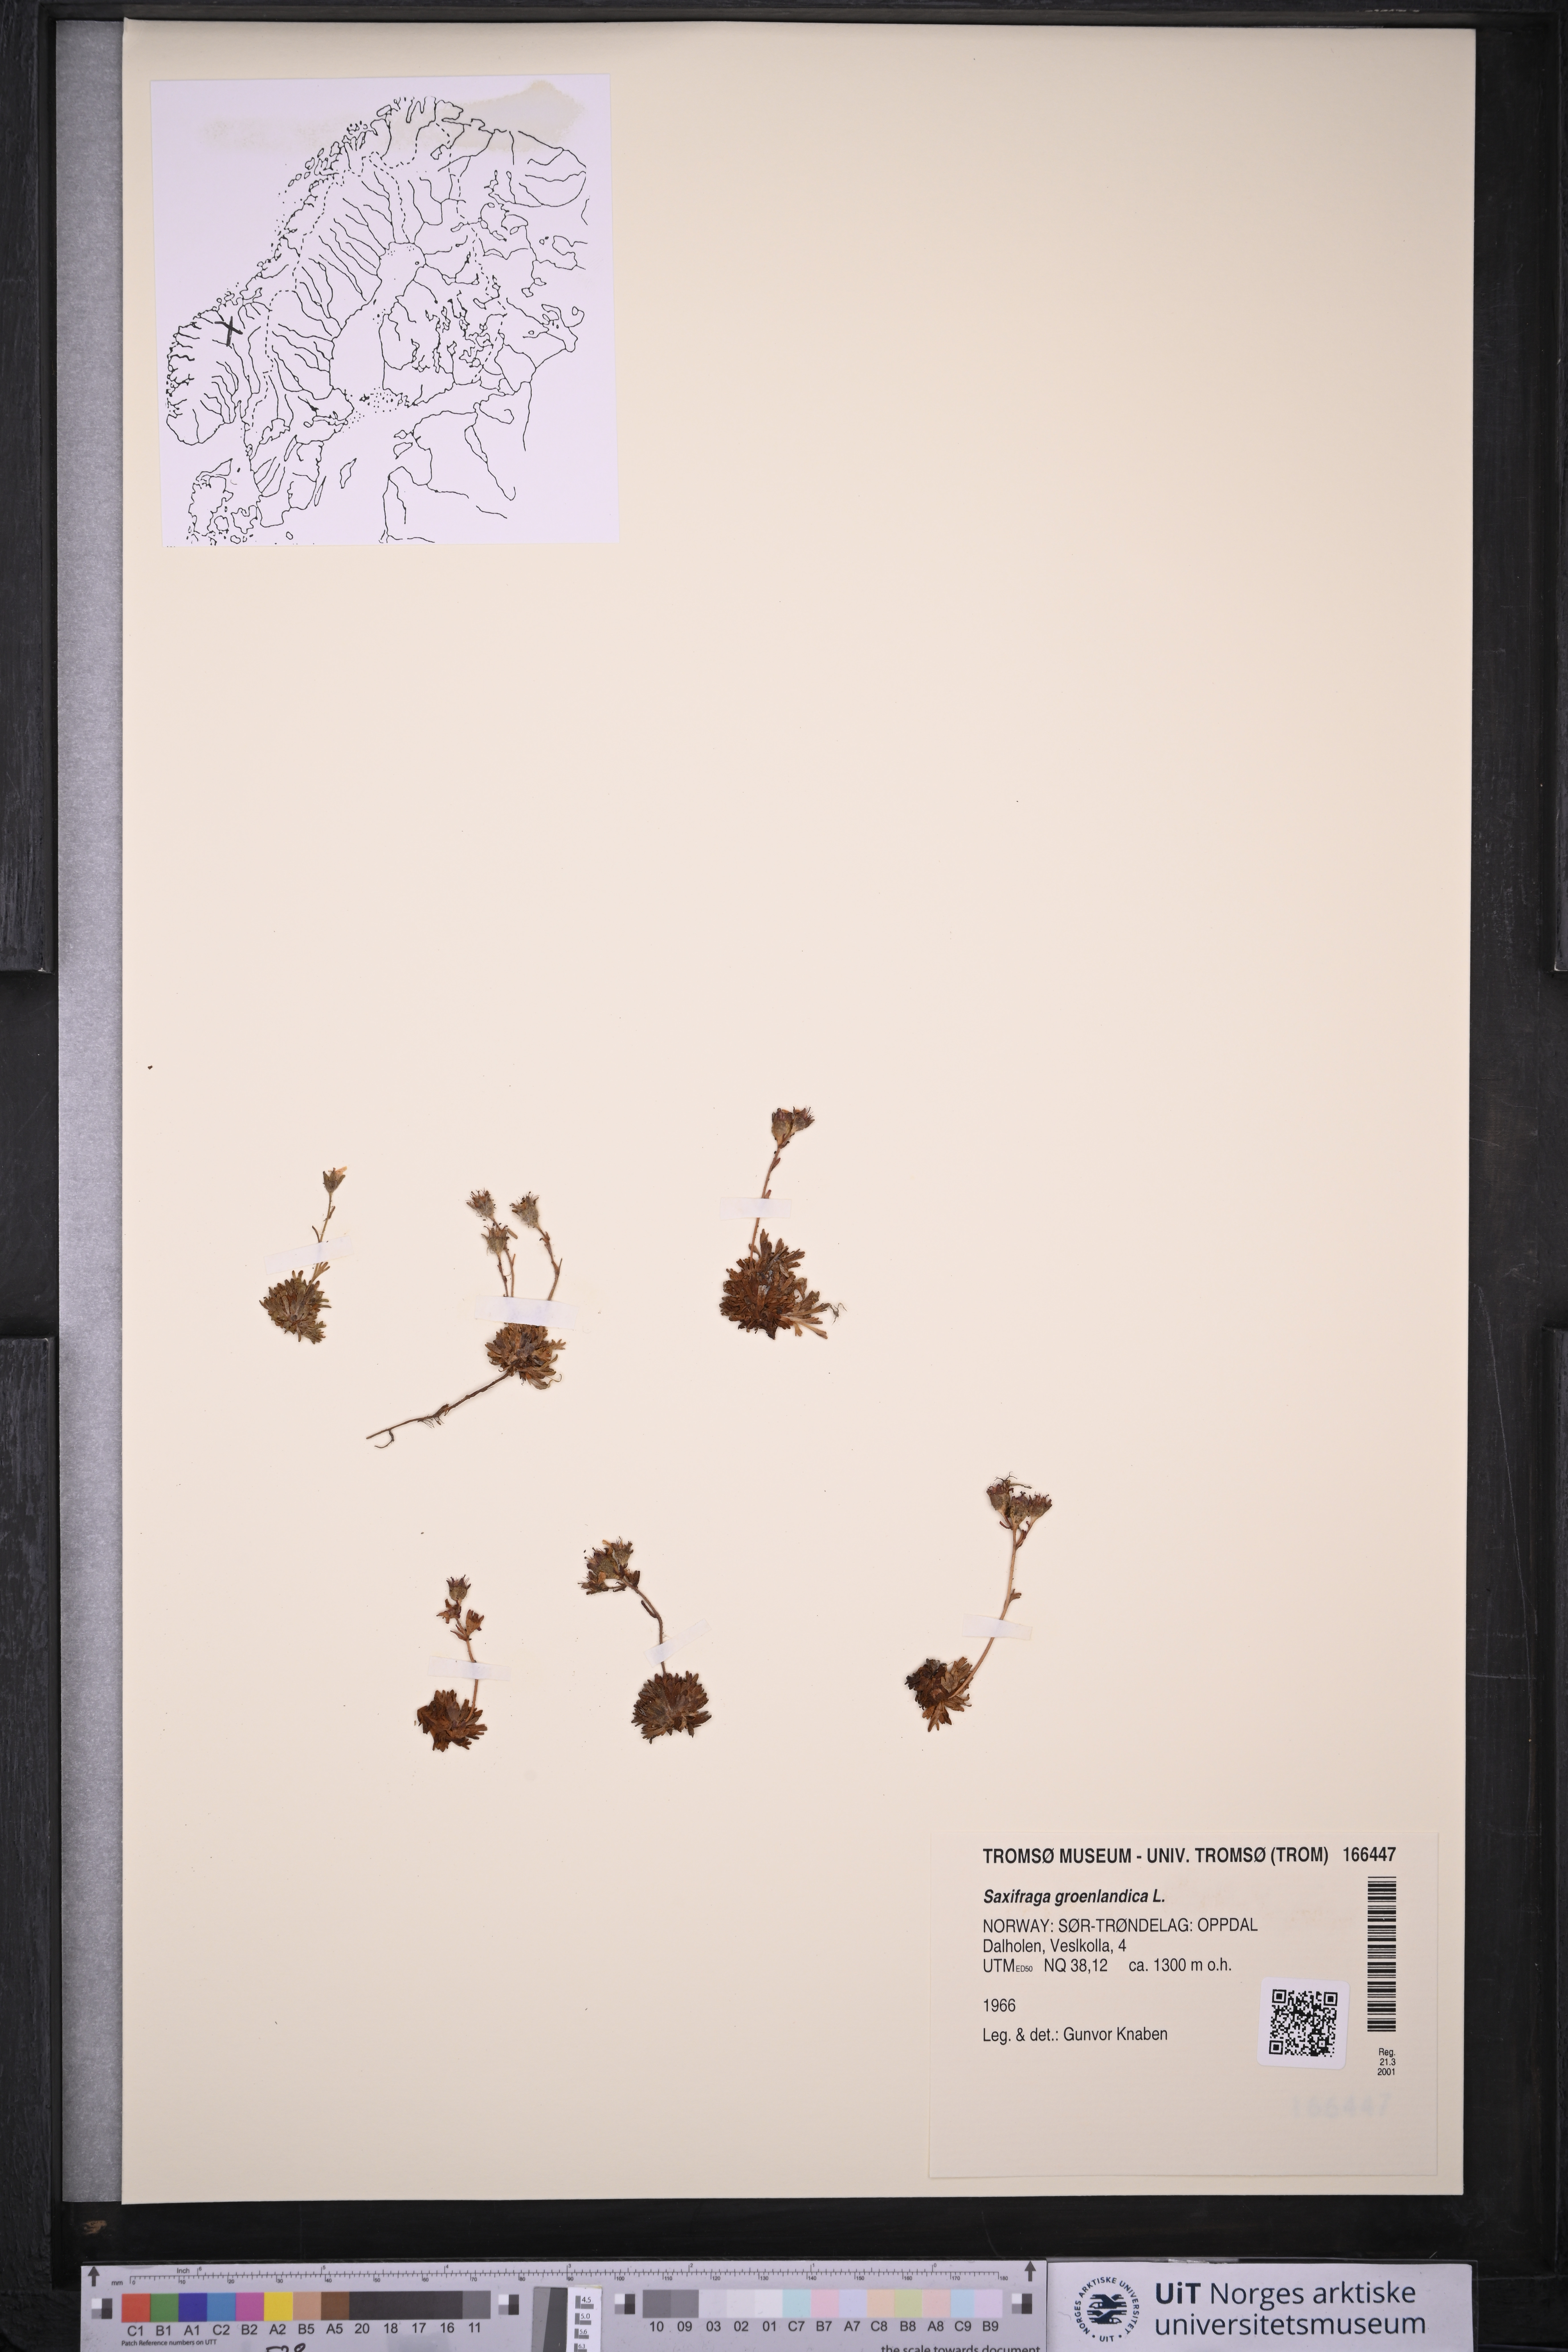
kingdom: Plantae
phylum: Tracheophyta
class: Magnoliopsida
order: Saxifragales
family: Saxifragaceae
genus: Saxifraga
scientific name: Saxifraga cespitosa
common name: Tufted saxifrage
